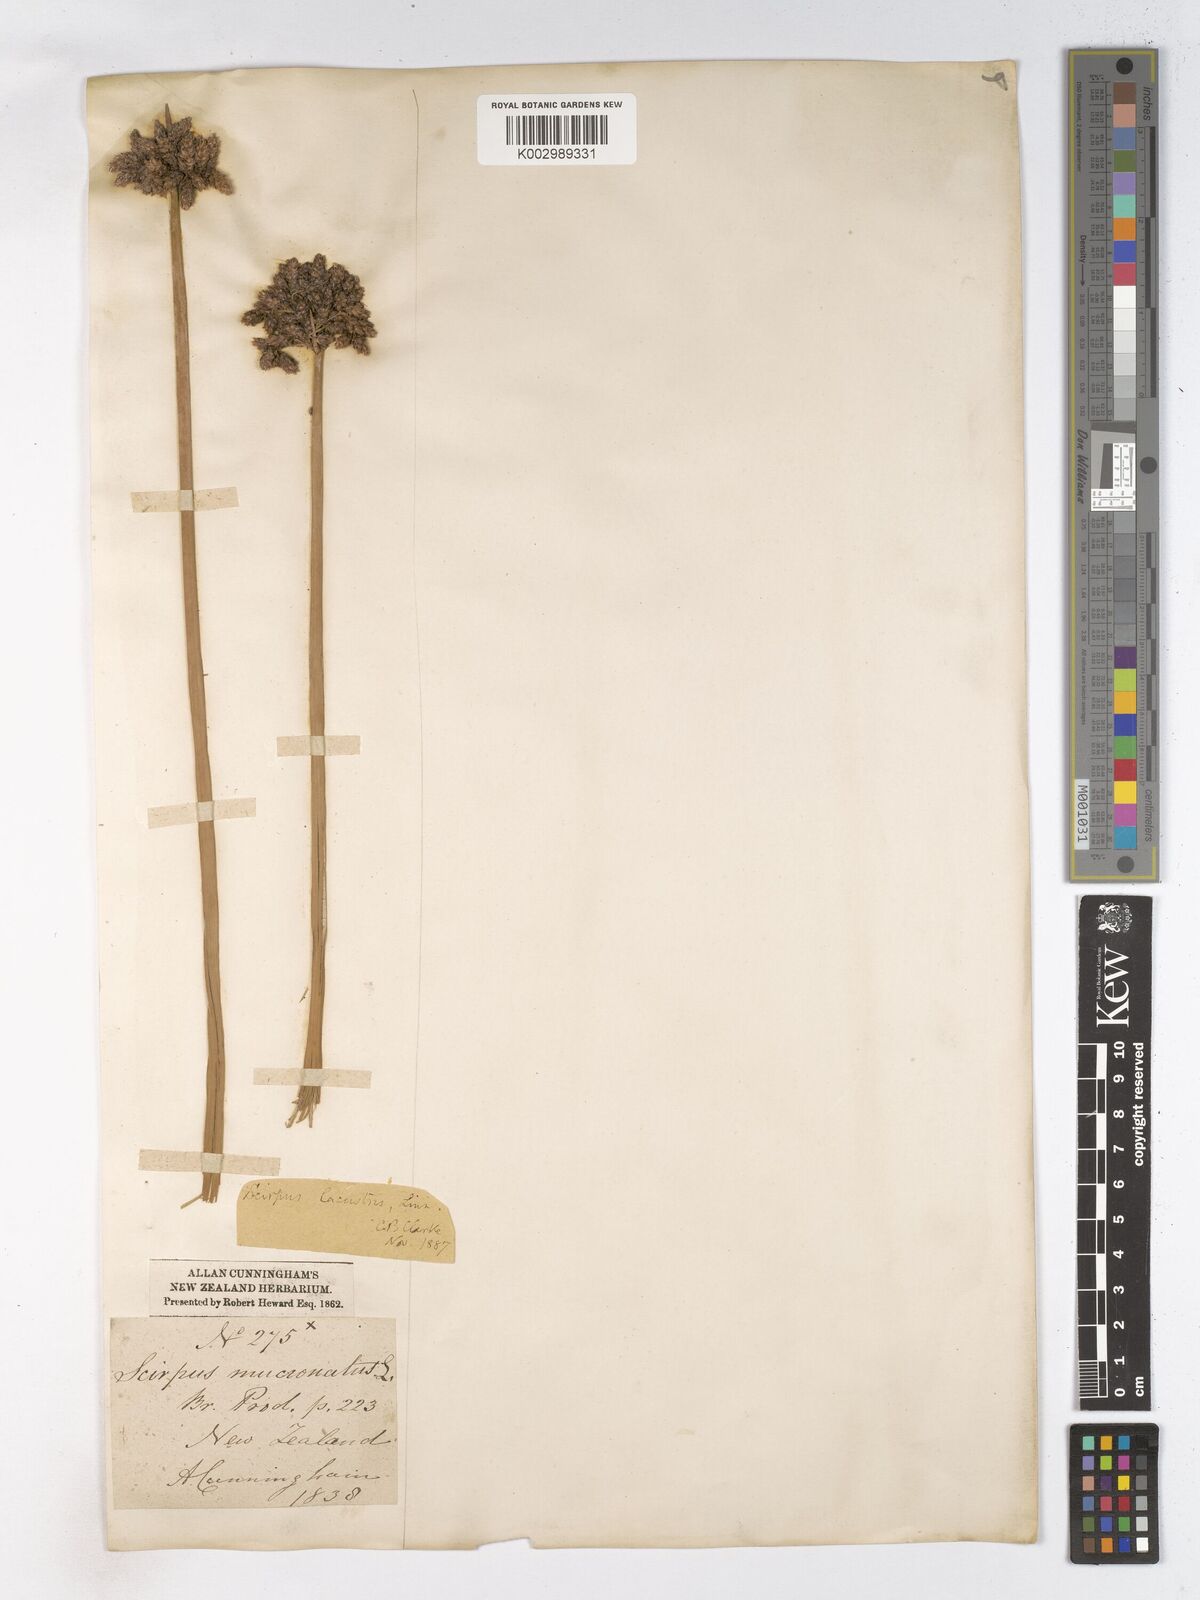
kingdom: Plantae
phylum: Tracheophyta
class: Liliopsida
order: Poales
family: Cyperaceae
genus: Schoenoplectus
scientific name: Schoenoplectus lacustris
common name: Common club-rush
